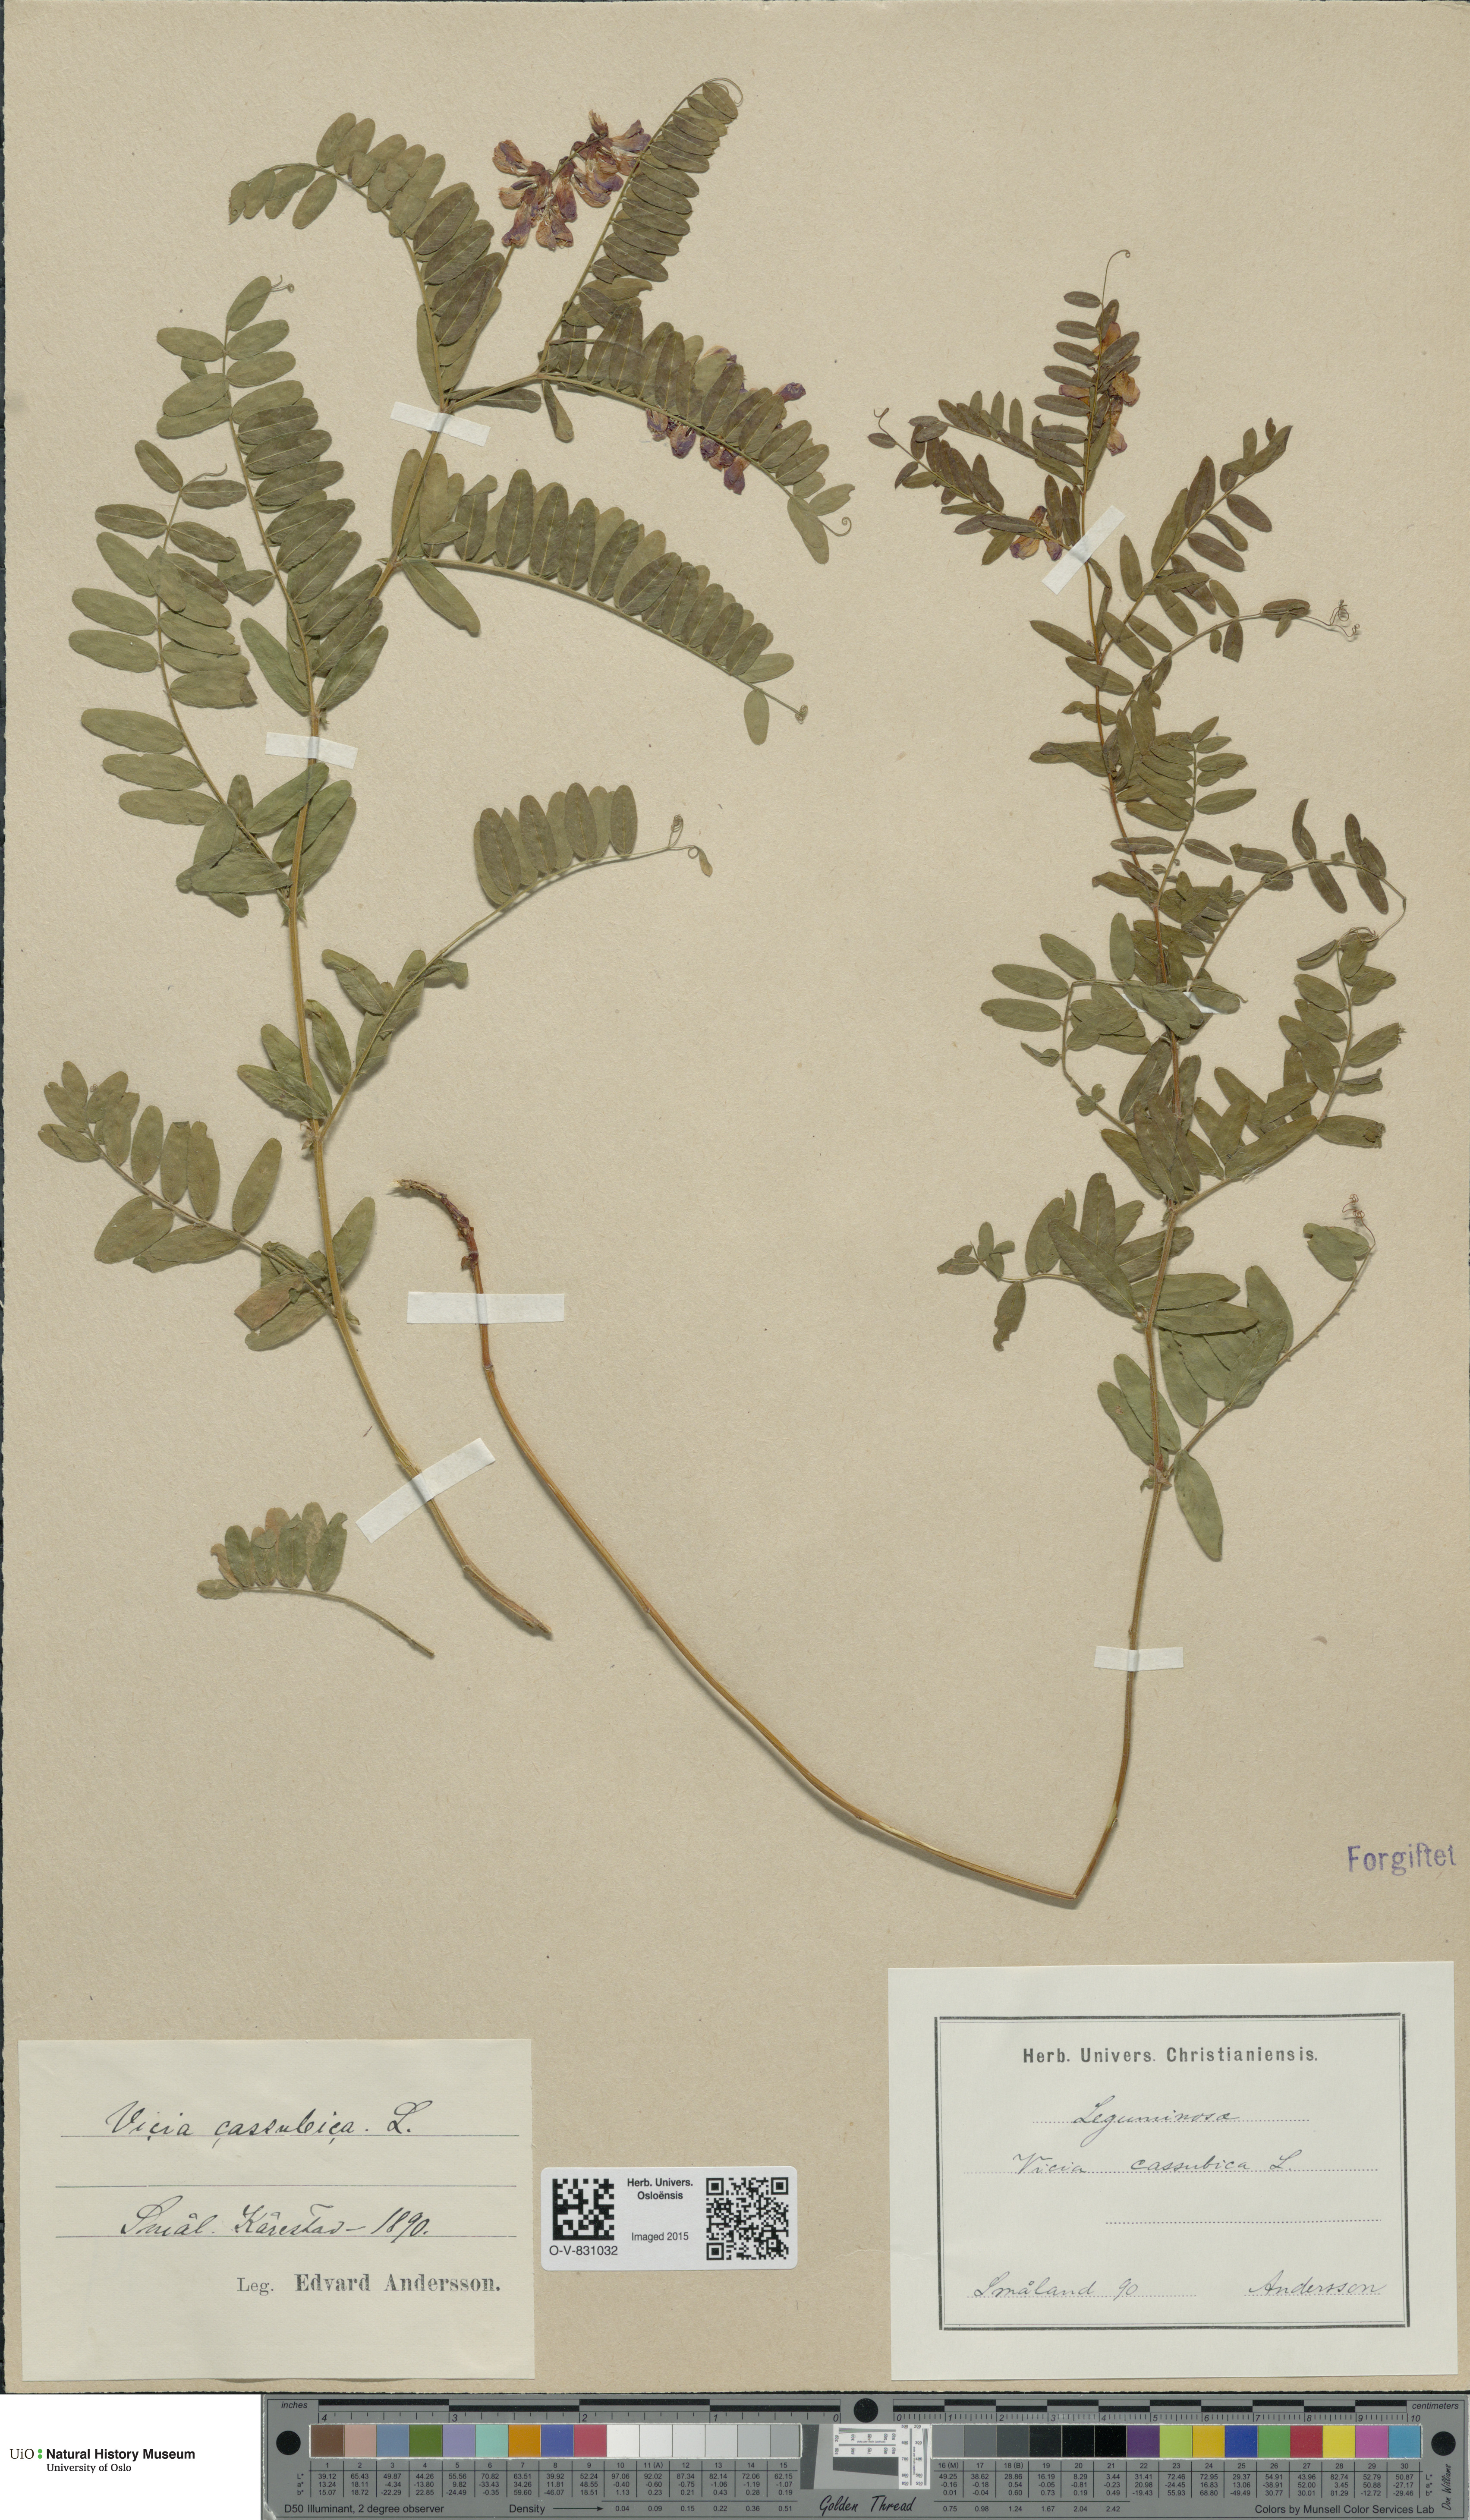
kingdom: Plantae
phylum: Tracheophyta
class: Magnoliopsida
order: Fabales
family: Fabaceae
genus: Vicia
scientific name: Vicia cassubica
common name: Danzig vetch
